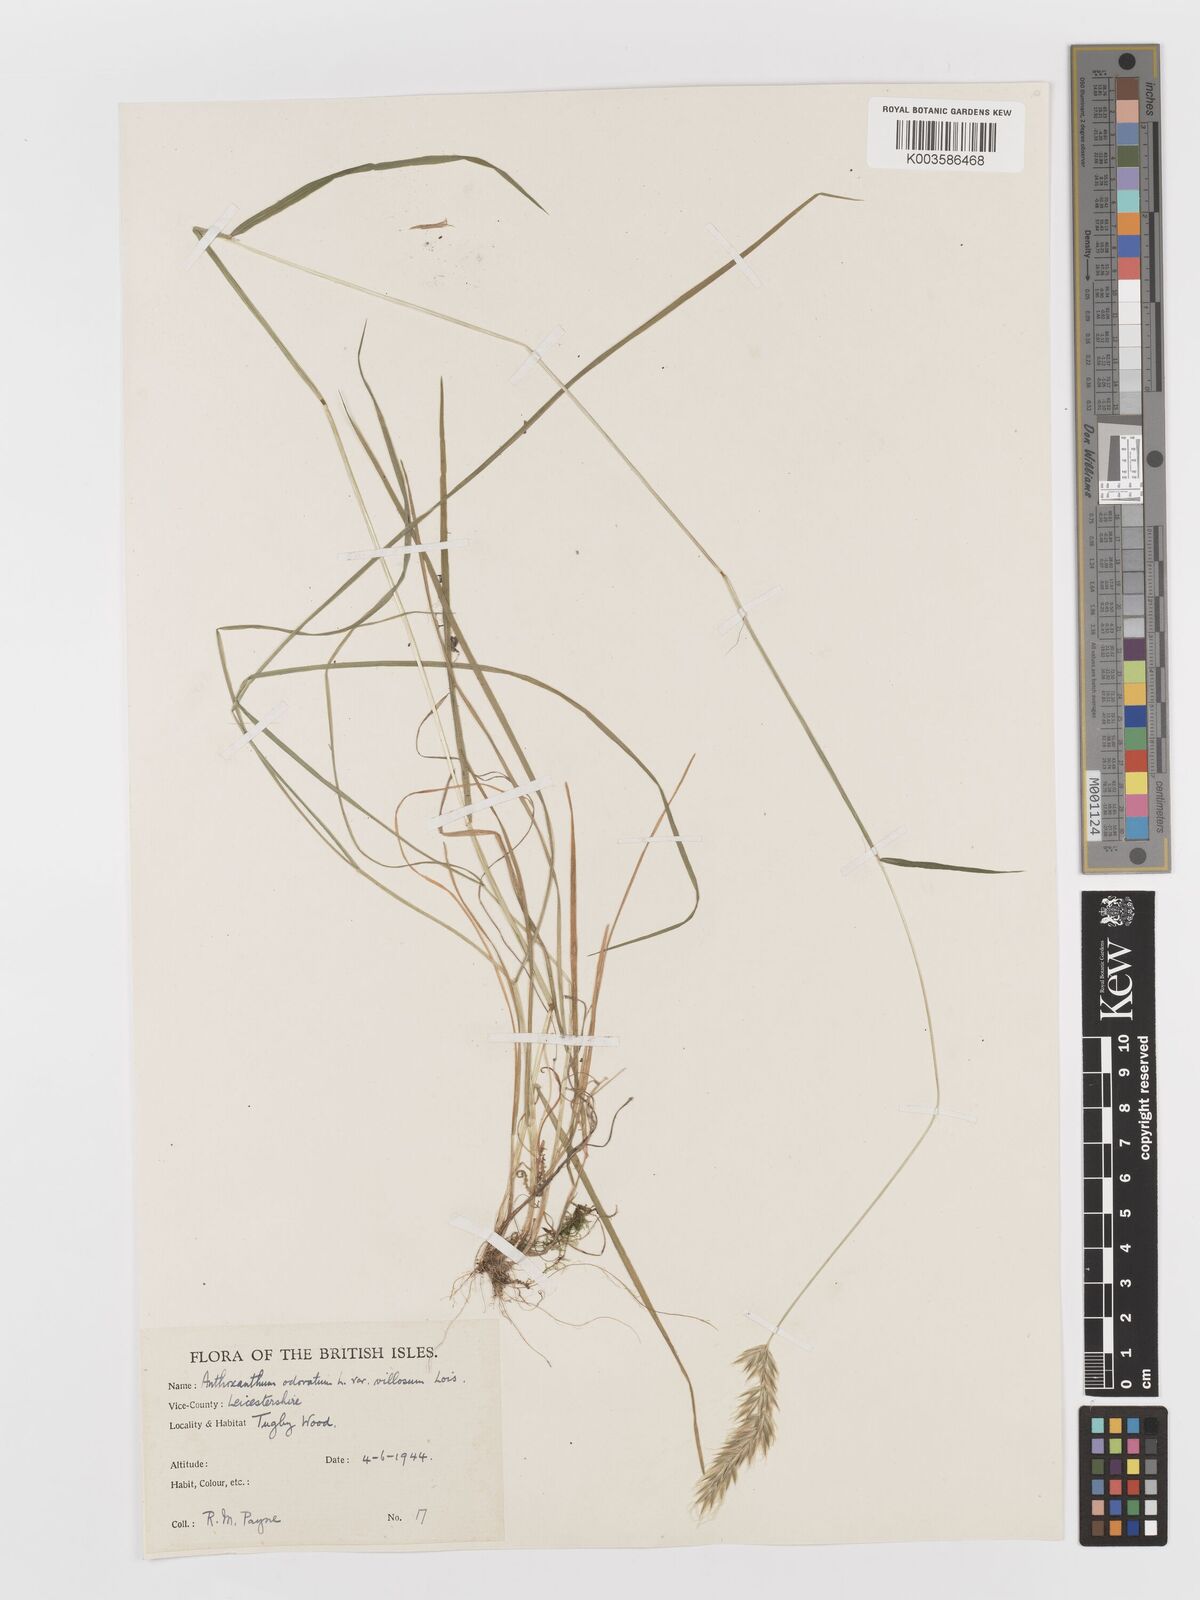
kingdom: Plantae
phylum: Tracheophyta
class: Liliopsida
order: Poales
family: Poaceae
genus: Anthoxanthum
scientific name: Anthoxanthum odoratum
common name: Sweet vernalgrass
